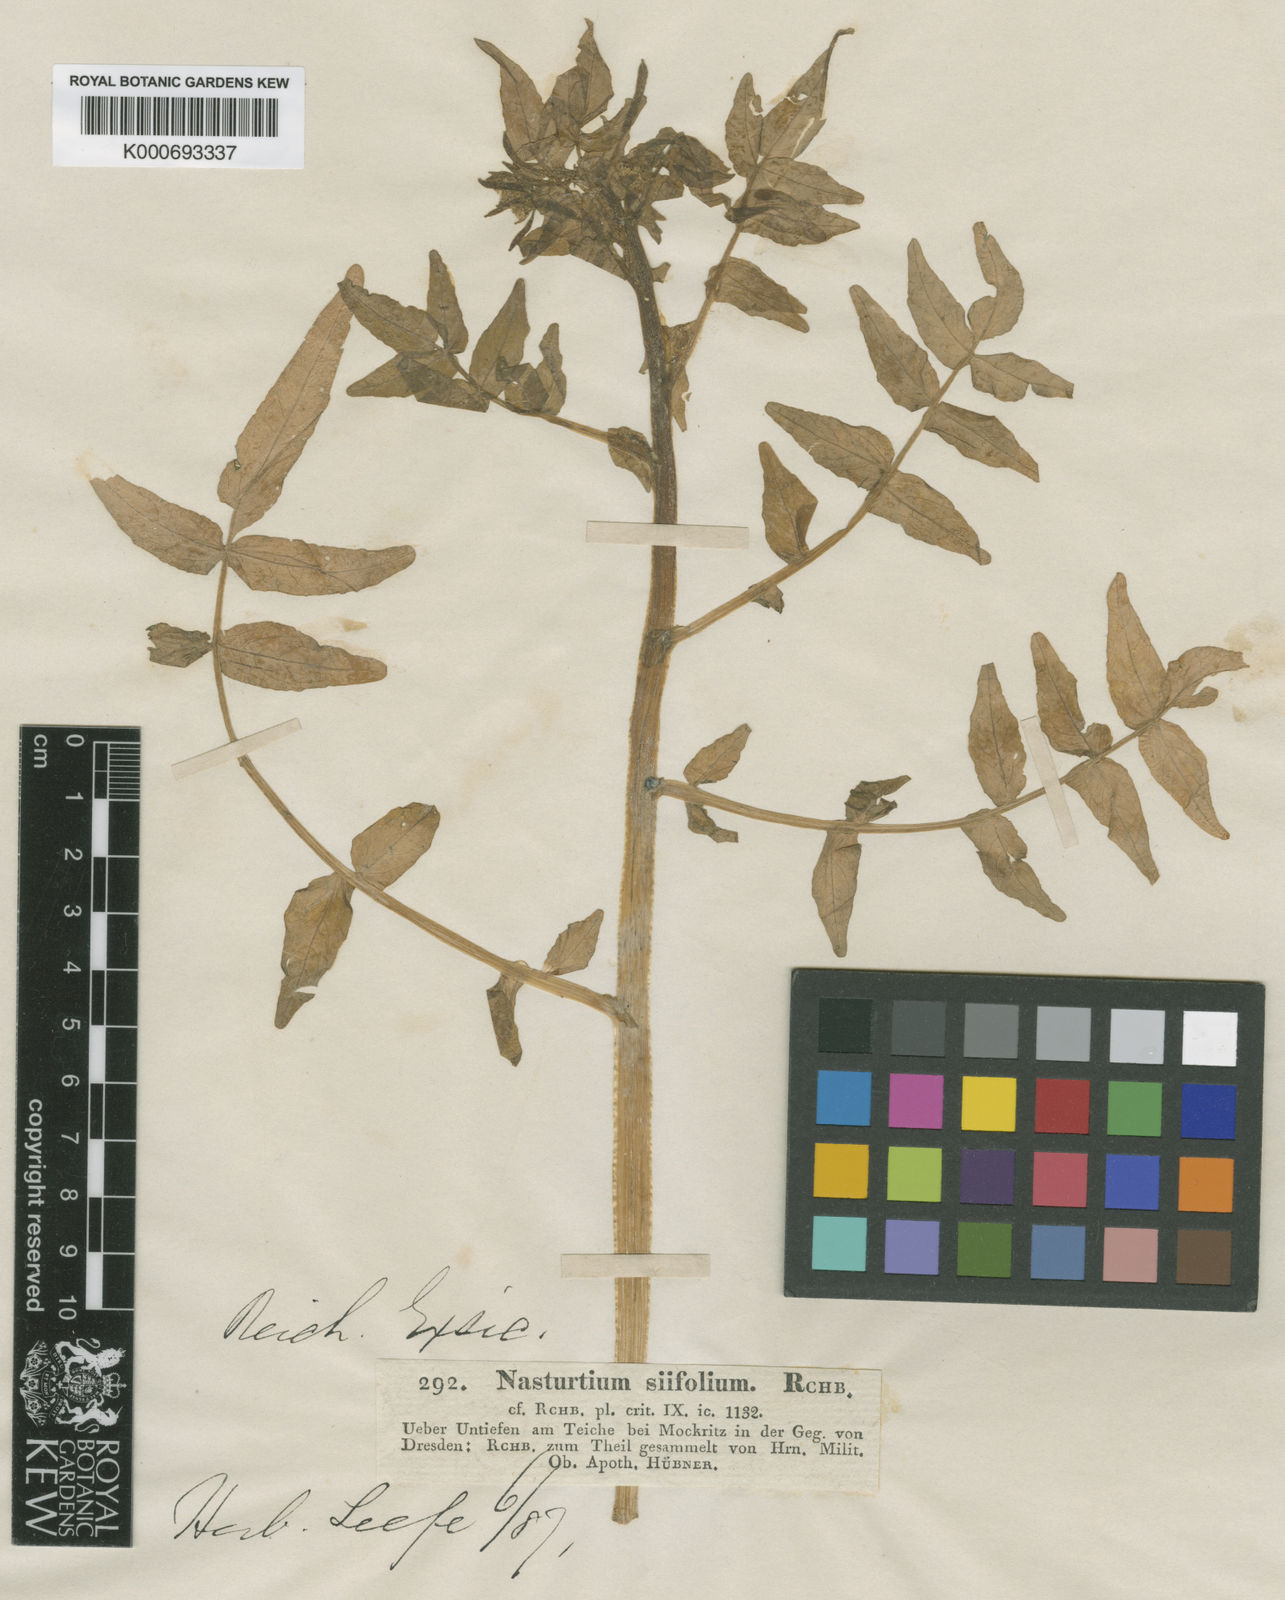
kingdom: Plantae
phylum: Tracheophyta
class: Magnoliopsida
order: Brassicales
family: Brassicaceae
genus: Nasturtium
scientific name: Nasturtium
